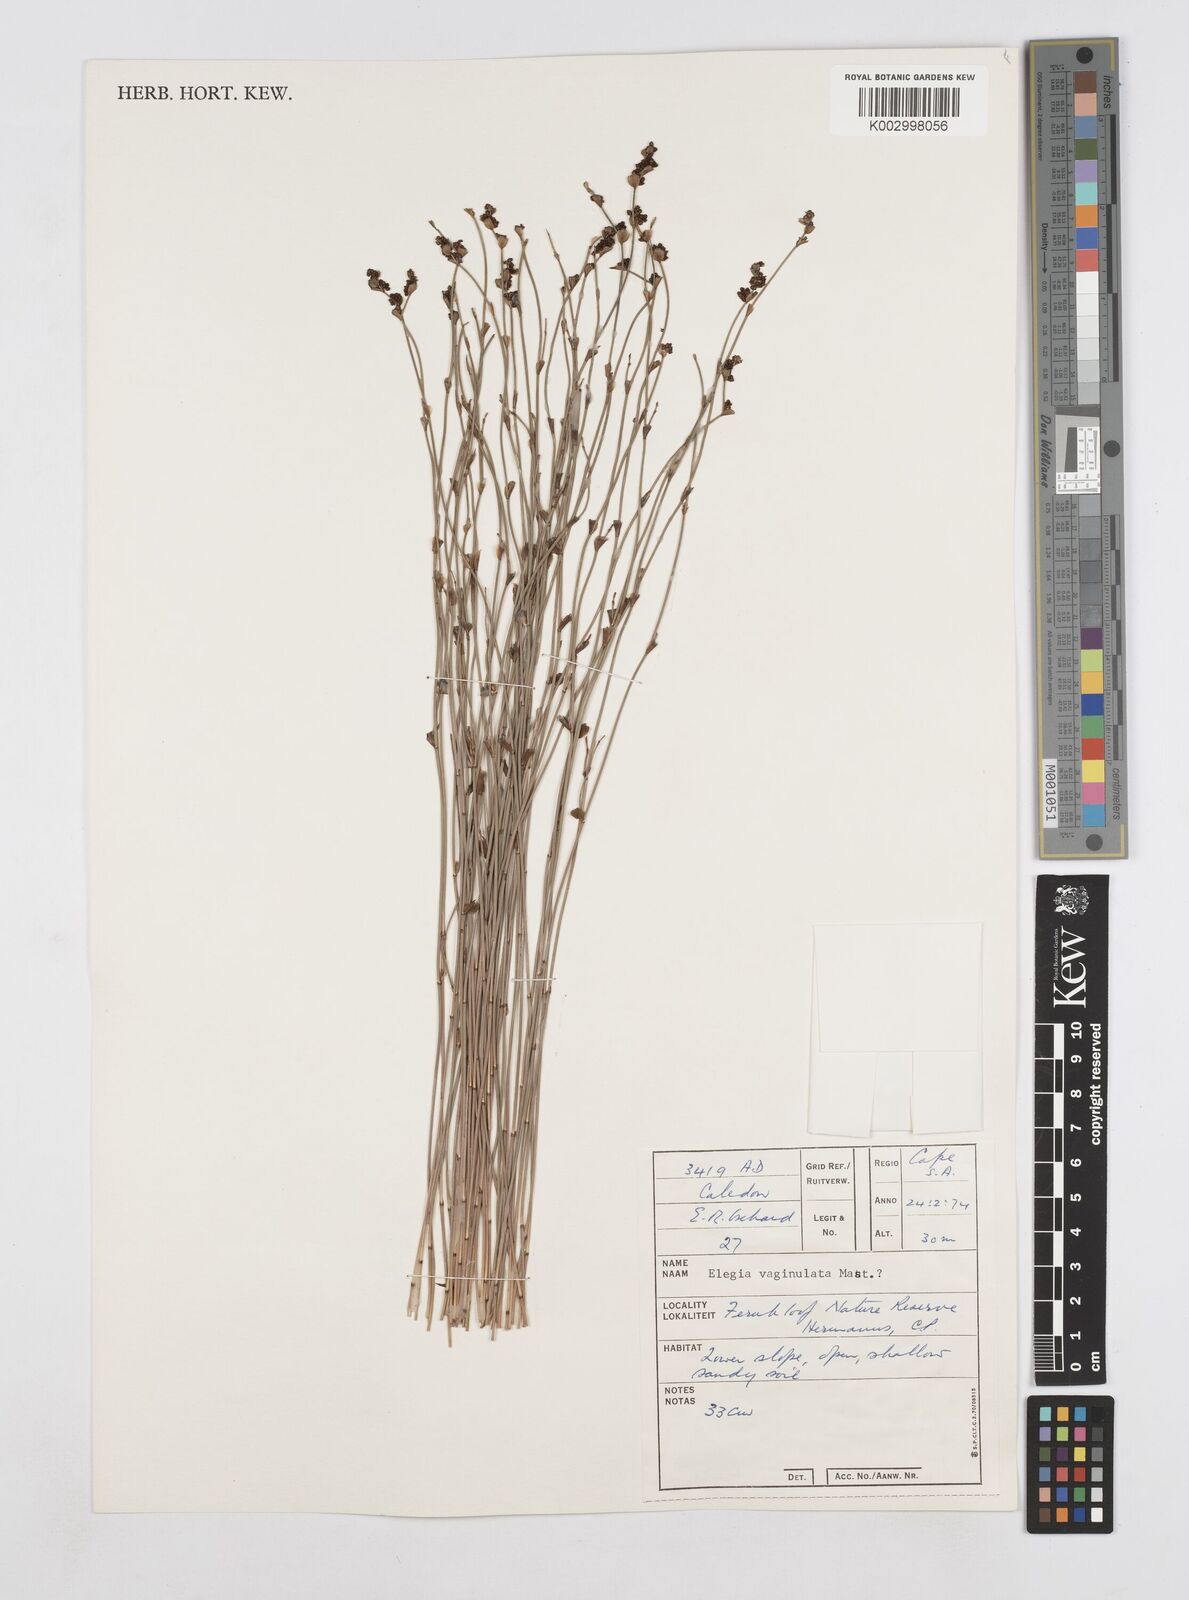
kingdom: Plantae
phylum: Tracheophyta
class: Liliopsida
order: Poales
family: Restionaceae
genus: Elegia
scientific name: Elegia vaginulata
